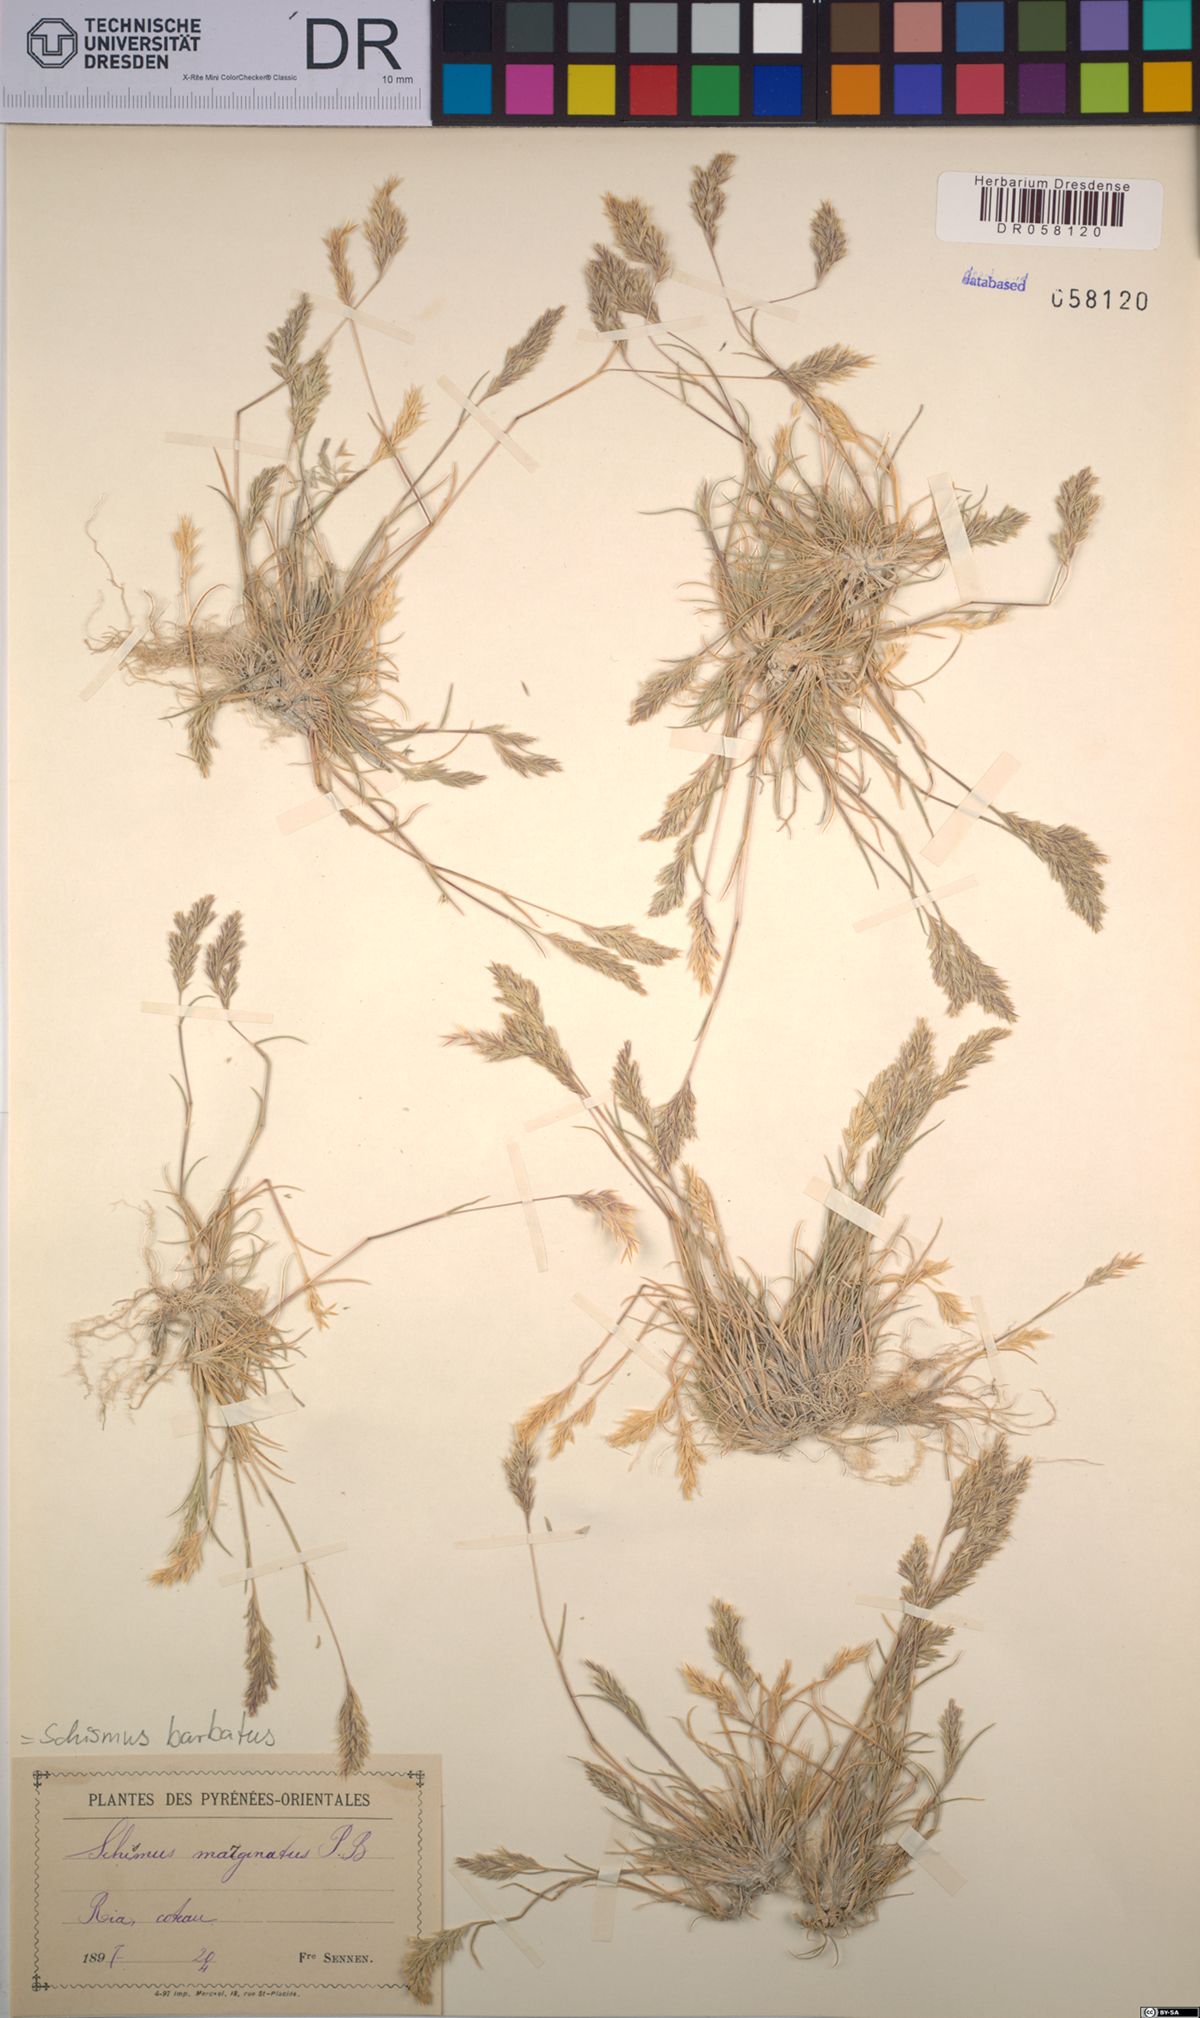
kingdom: Plantae
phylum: Tracheophyta
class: Liliopsida
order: Poales
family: Poaceae
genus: Schismus
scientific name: Schismus barbatus
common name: Kelch-grass
